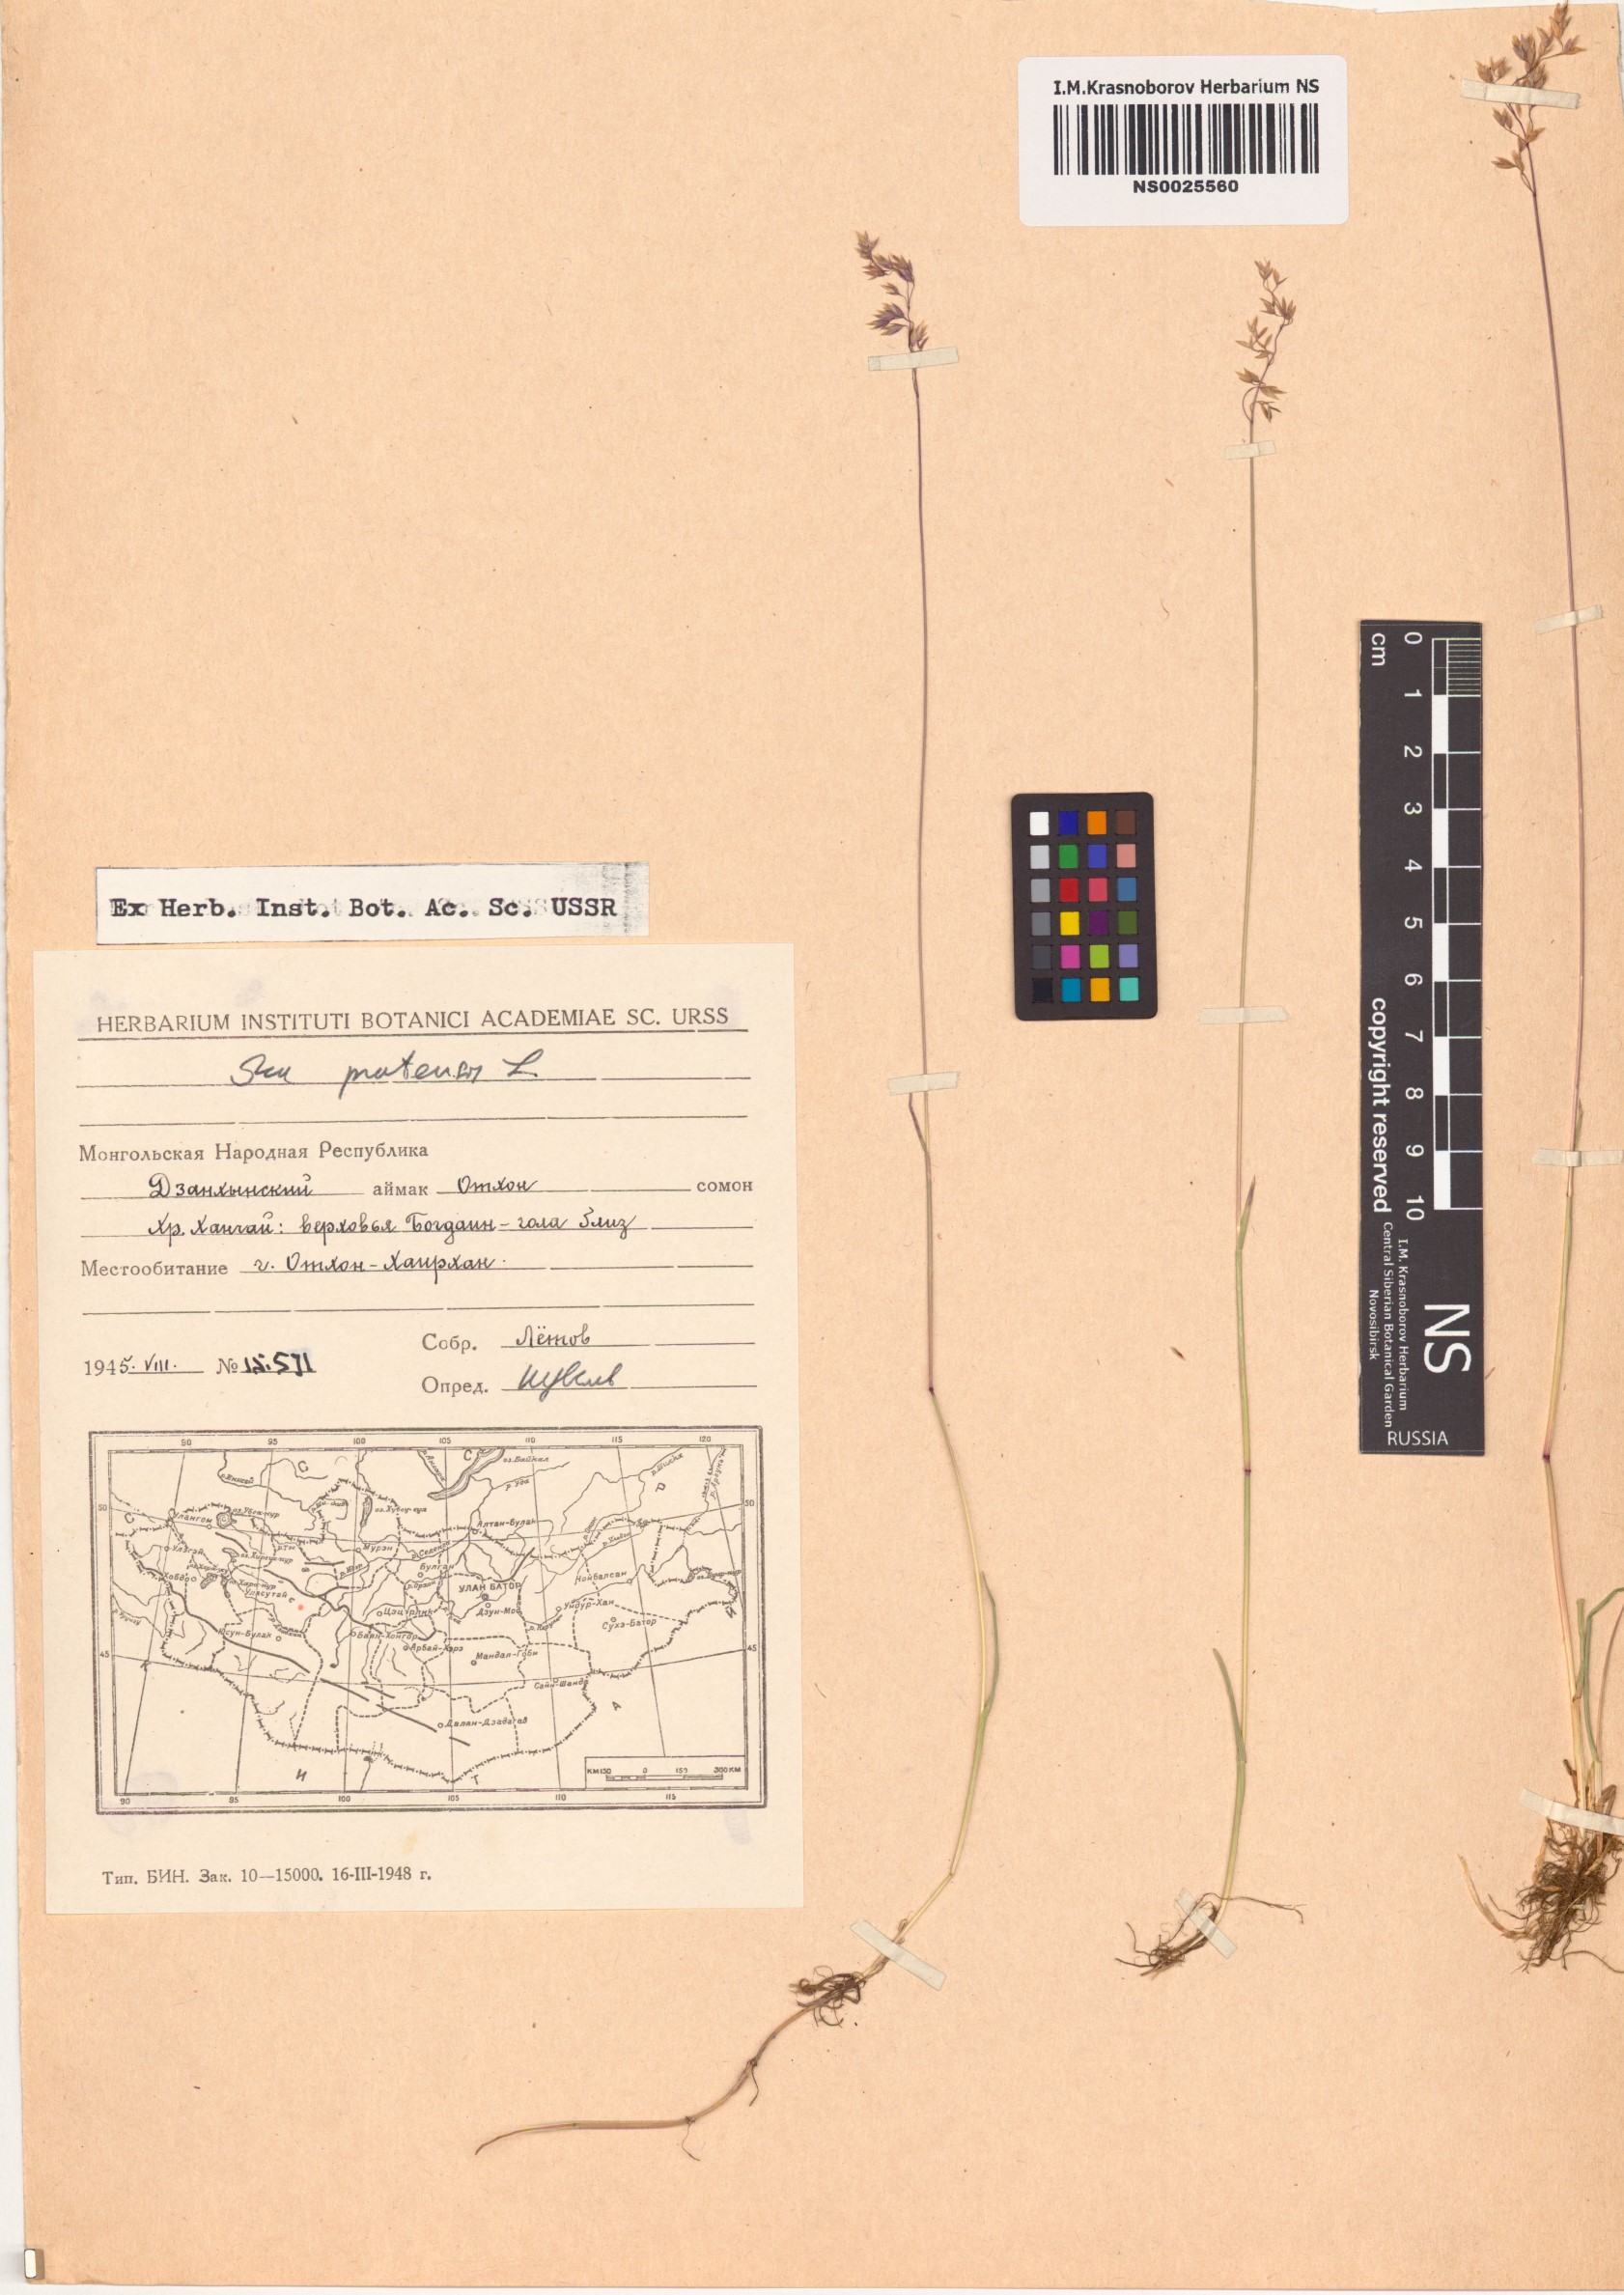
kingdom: Plantae
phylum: Tracheophyta
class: Liliopsida
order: Poales
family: Poaceae
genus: Poa
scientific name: Poa pratensis
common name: Kentucky bluegrass
